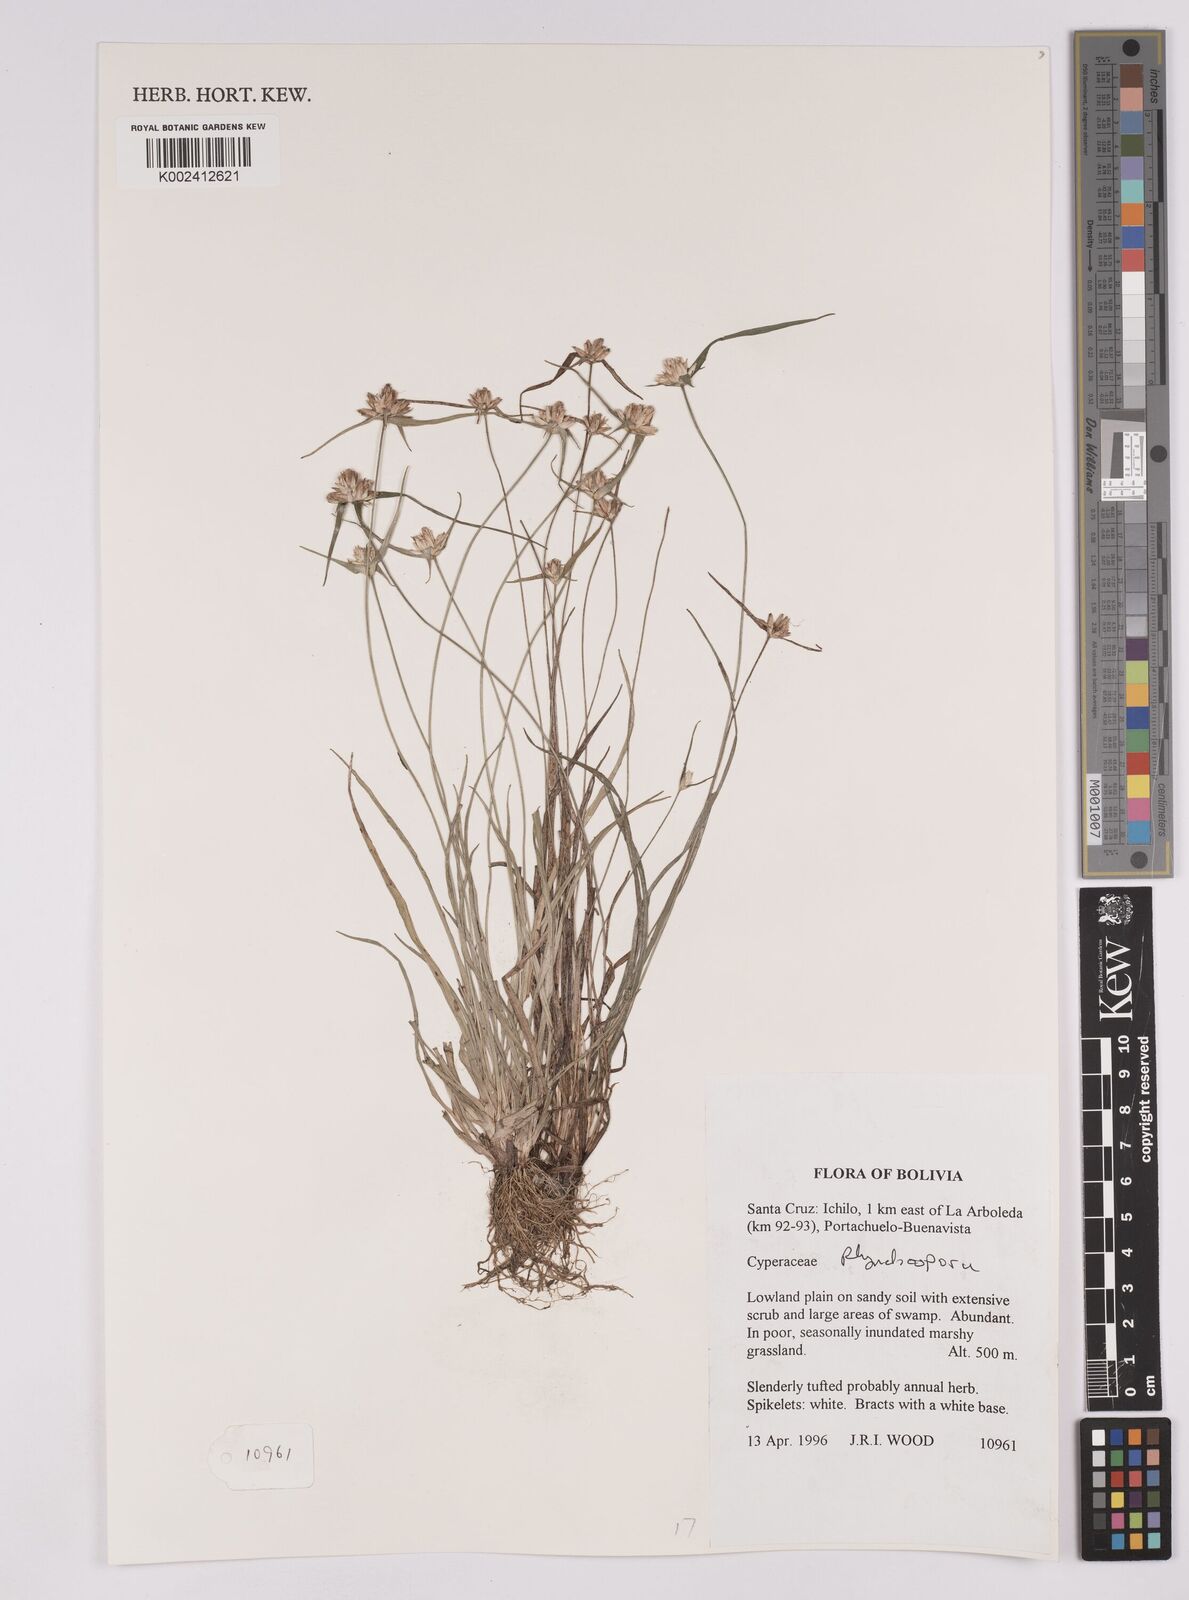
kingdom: Plantae
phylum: Tracheophyta
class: Liliopsida
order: Poales
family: Cyperaceae
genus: Rhynchospora
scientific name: Rhynchospora
